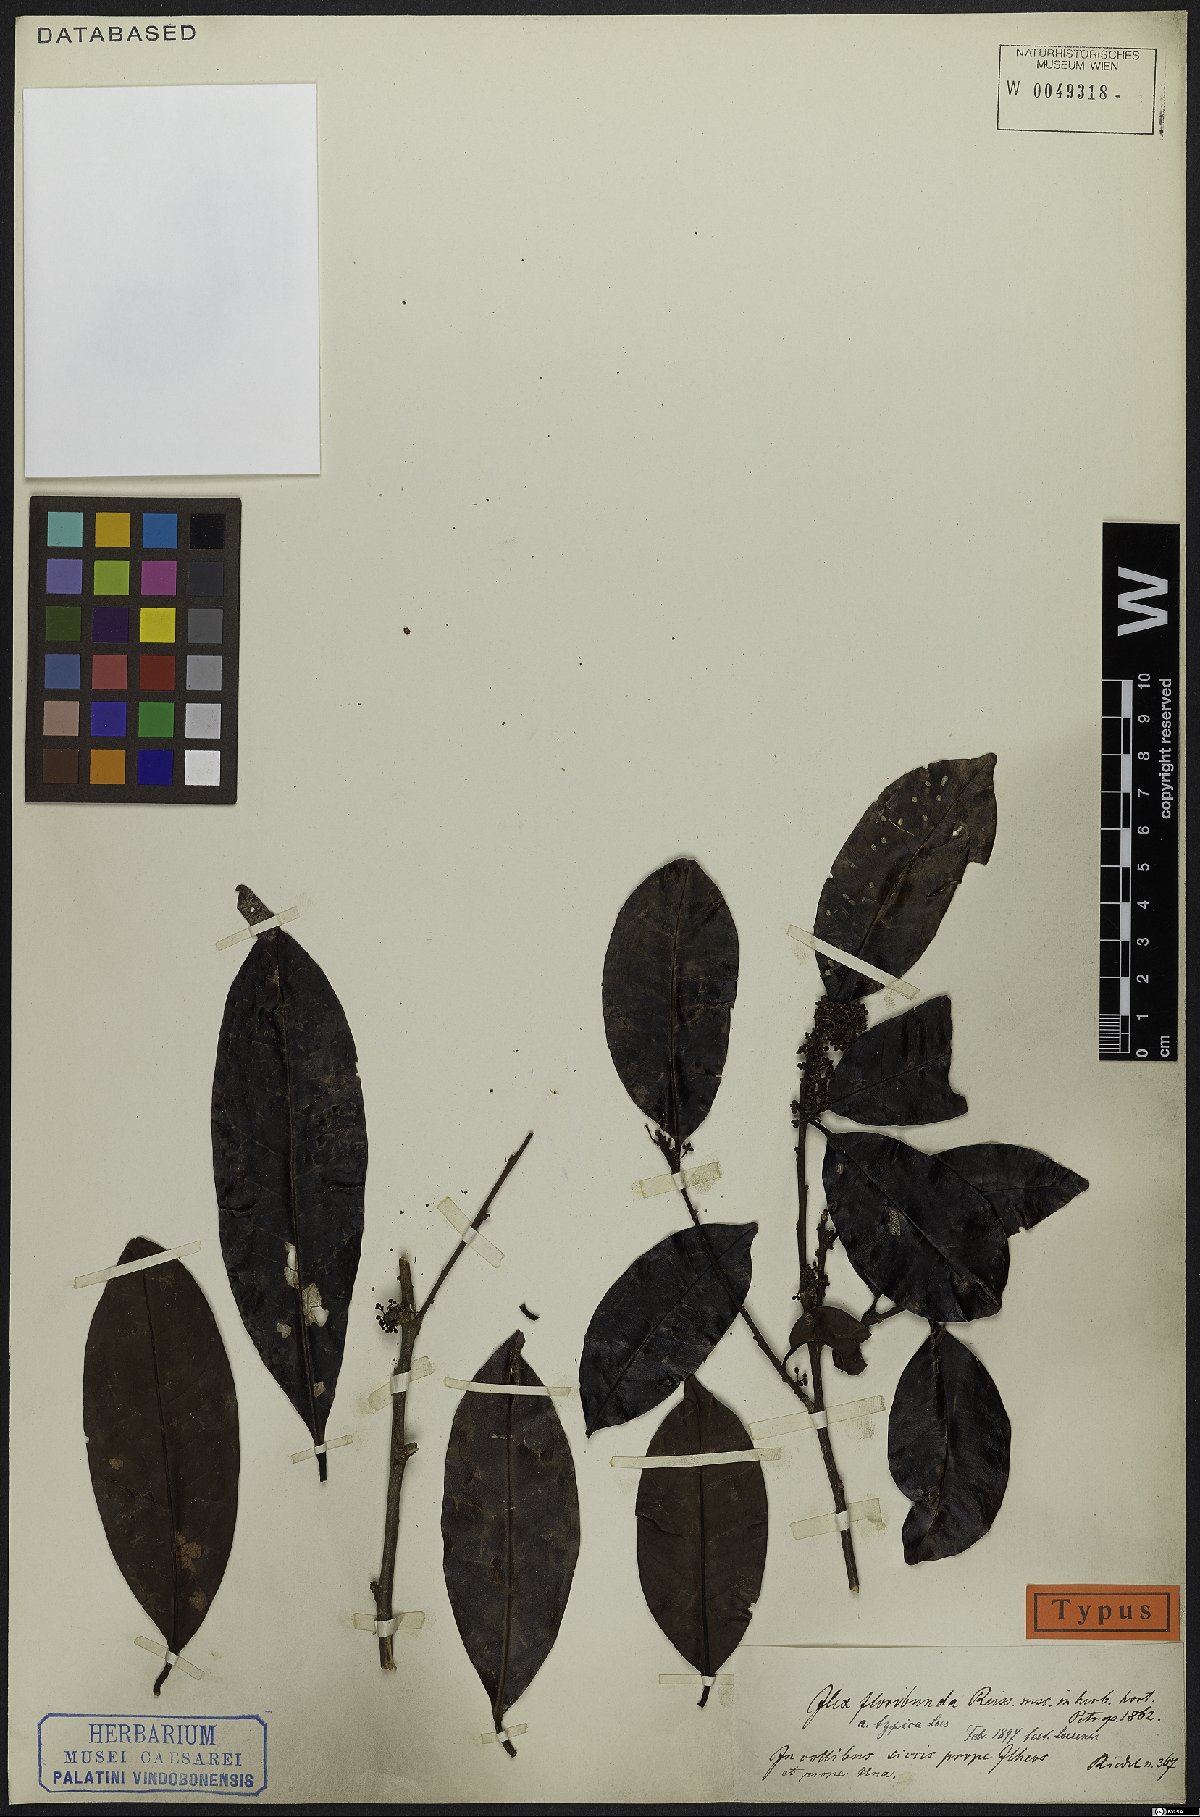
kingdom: Plantae
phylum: Tracheophyta
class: Magnoliopsida
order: Aquifoliales
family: Aquifoliaceae
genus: Ilex
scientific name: Ilex floribunda
